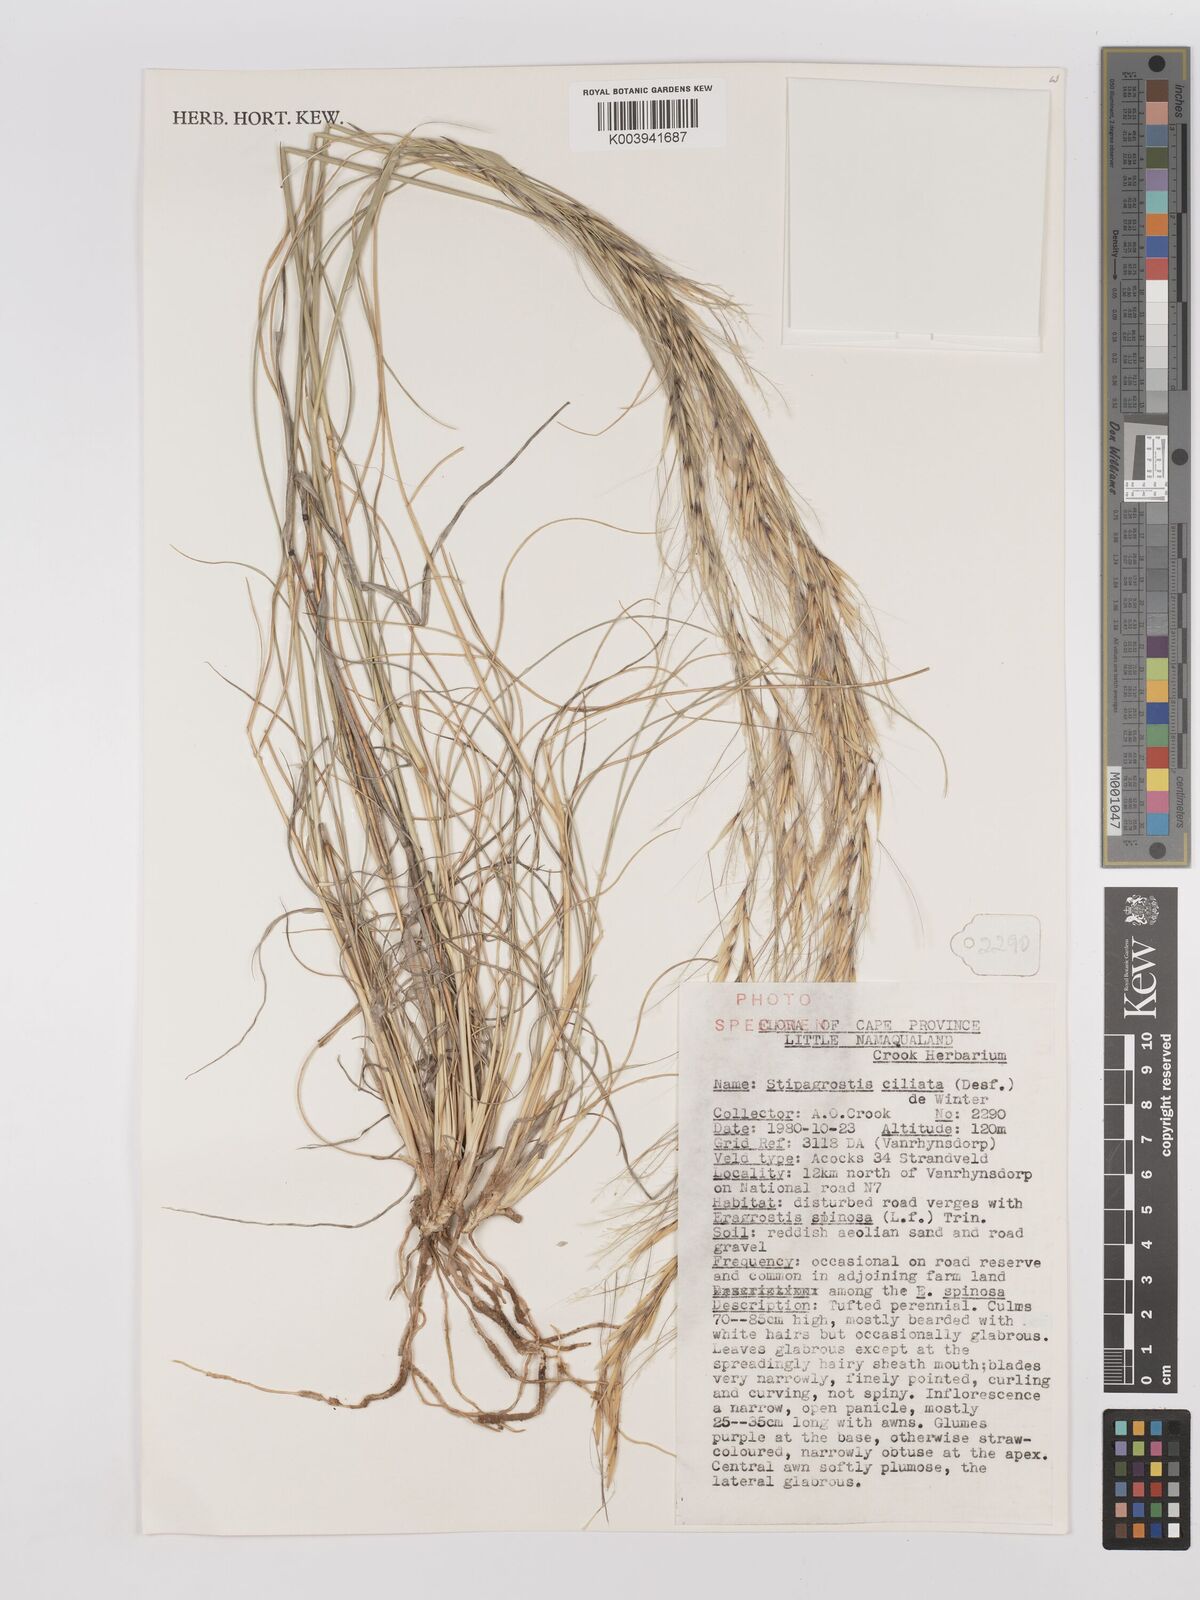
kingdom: Plantae
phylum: Tracheophyta
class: Liliopsida
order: Poales
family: Poaceae
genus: Stipagrostis
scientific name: Stipagrostis ciliata
